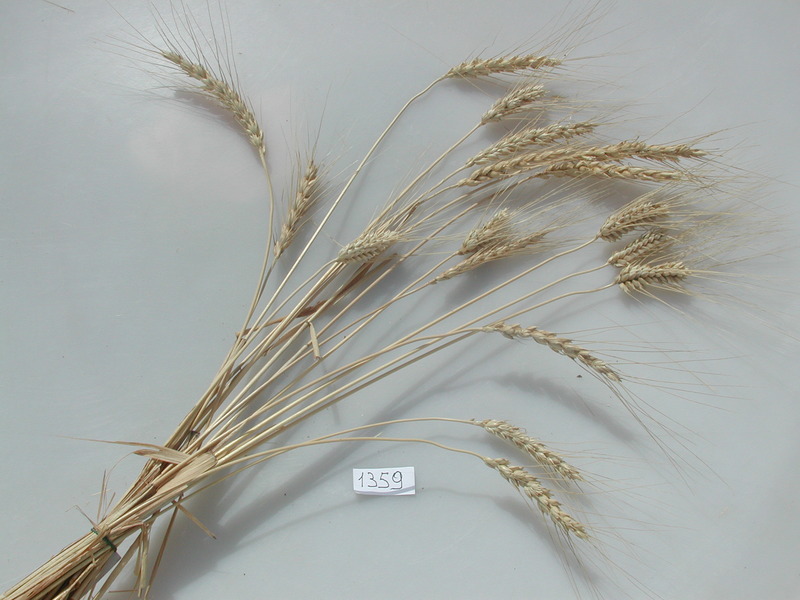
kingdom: Plantae
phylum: Tracheophyta
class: Liliopsida
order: Poales
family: Poaceae
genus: Triticum
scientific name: Triticum turgidum
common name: Wheat
